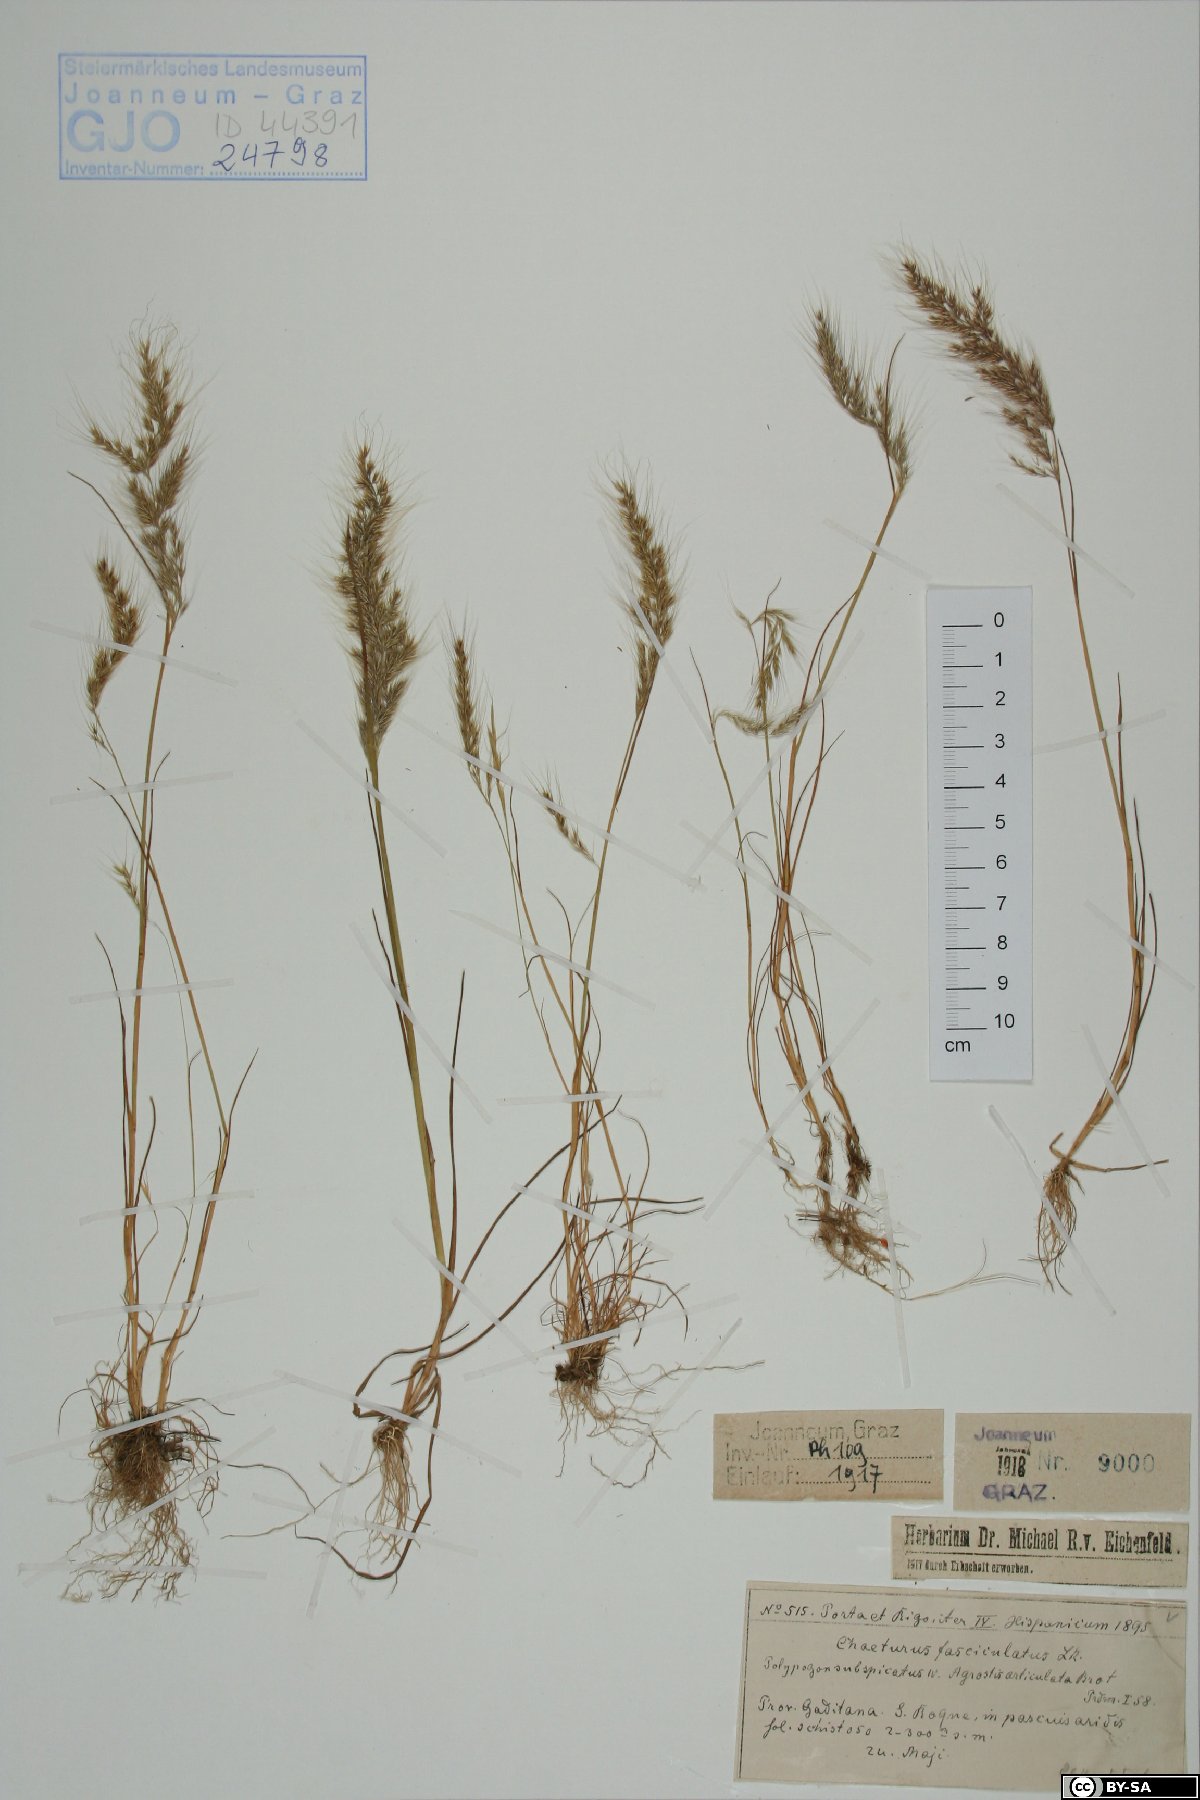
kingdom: Plantae
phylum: Tracheophyta
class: Liliopsida
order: Poales
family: Poaceae
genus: Agrostis
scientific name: Agrostis subspicata
